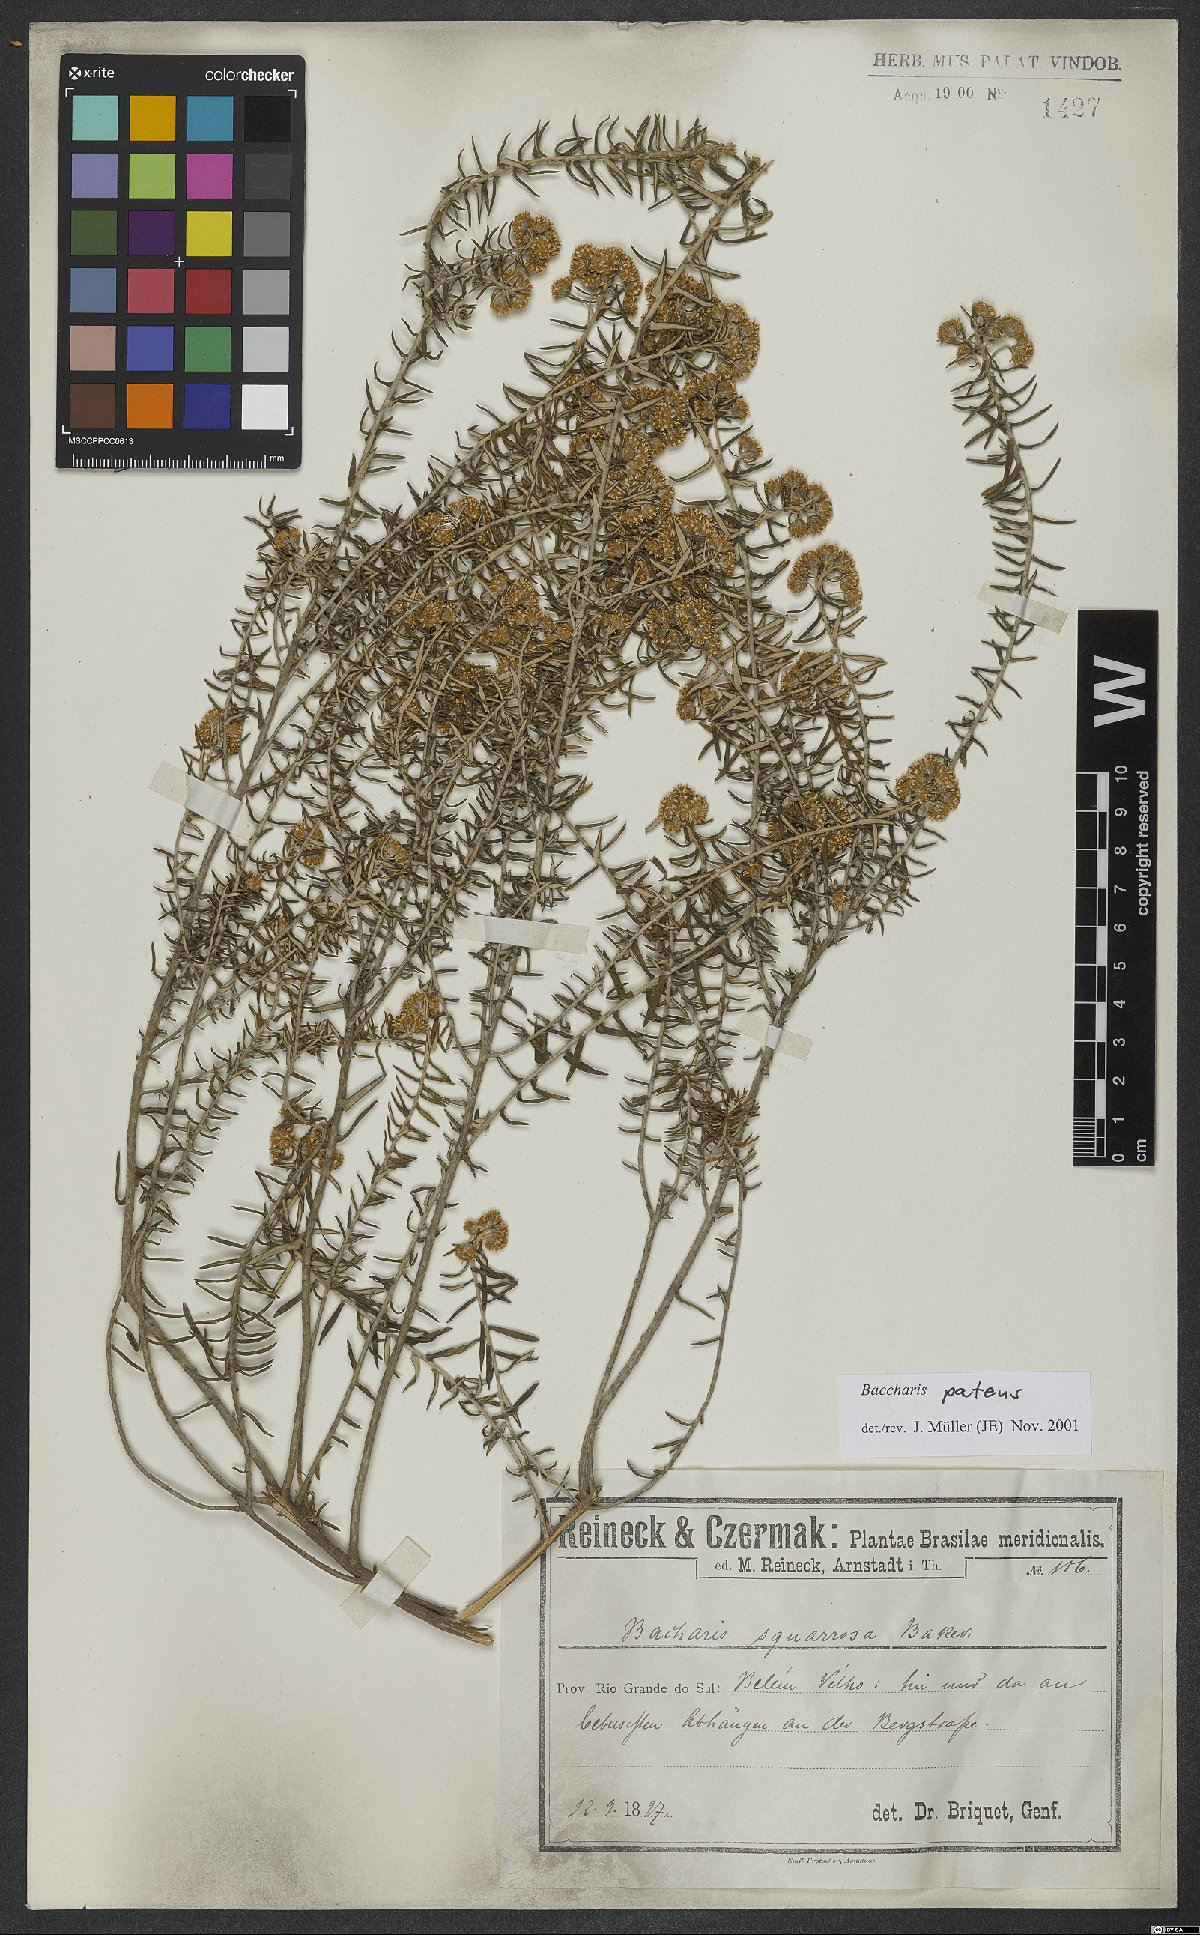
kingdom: Plantae
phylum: Tracheophyta
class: Magnoliopsida
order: Asterales
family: Asteraceae
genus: Baccharis
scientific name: Baccharis patens
